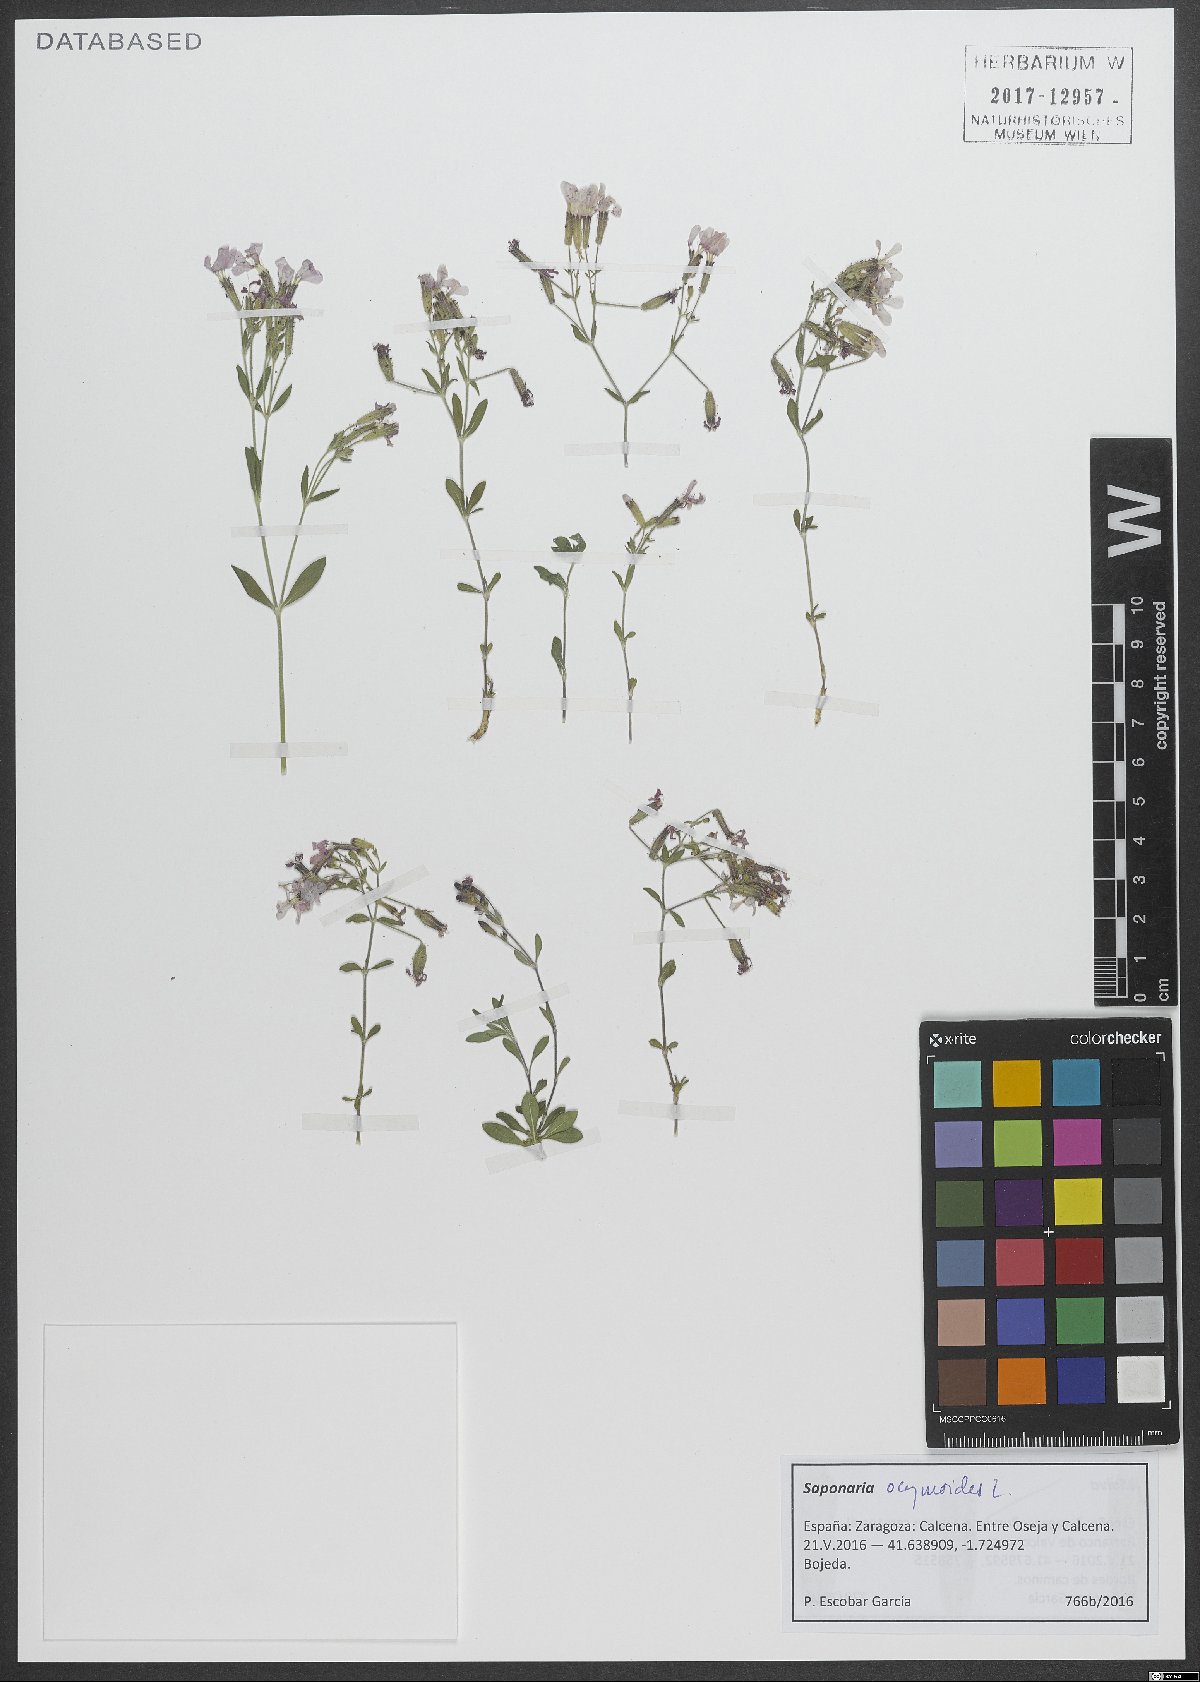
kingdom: Plantae
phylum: Tracheophyta
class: Magnoliopsida
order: Caryophyllales
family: Caryophyllaceae
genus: Saponaria
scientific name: Saponaria ocymoides
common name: Rock soapwort
